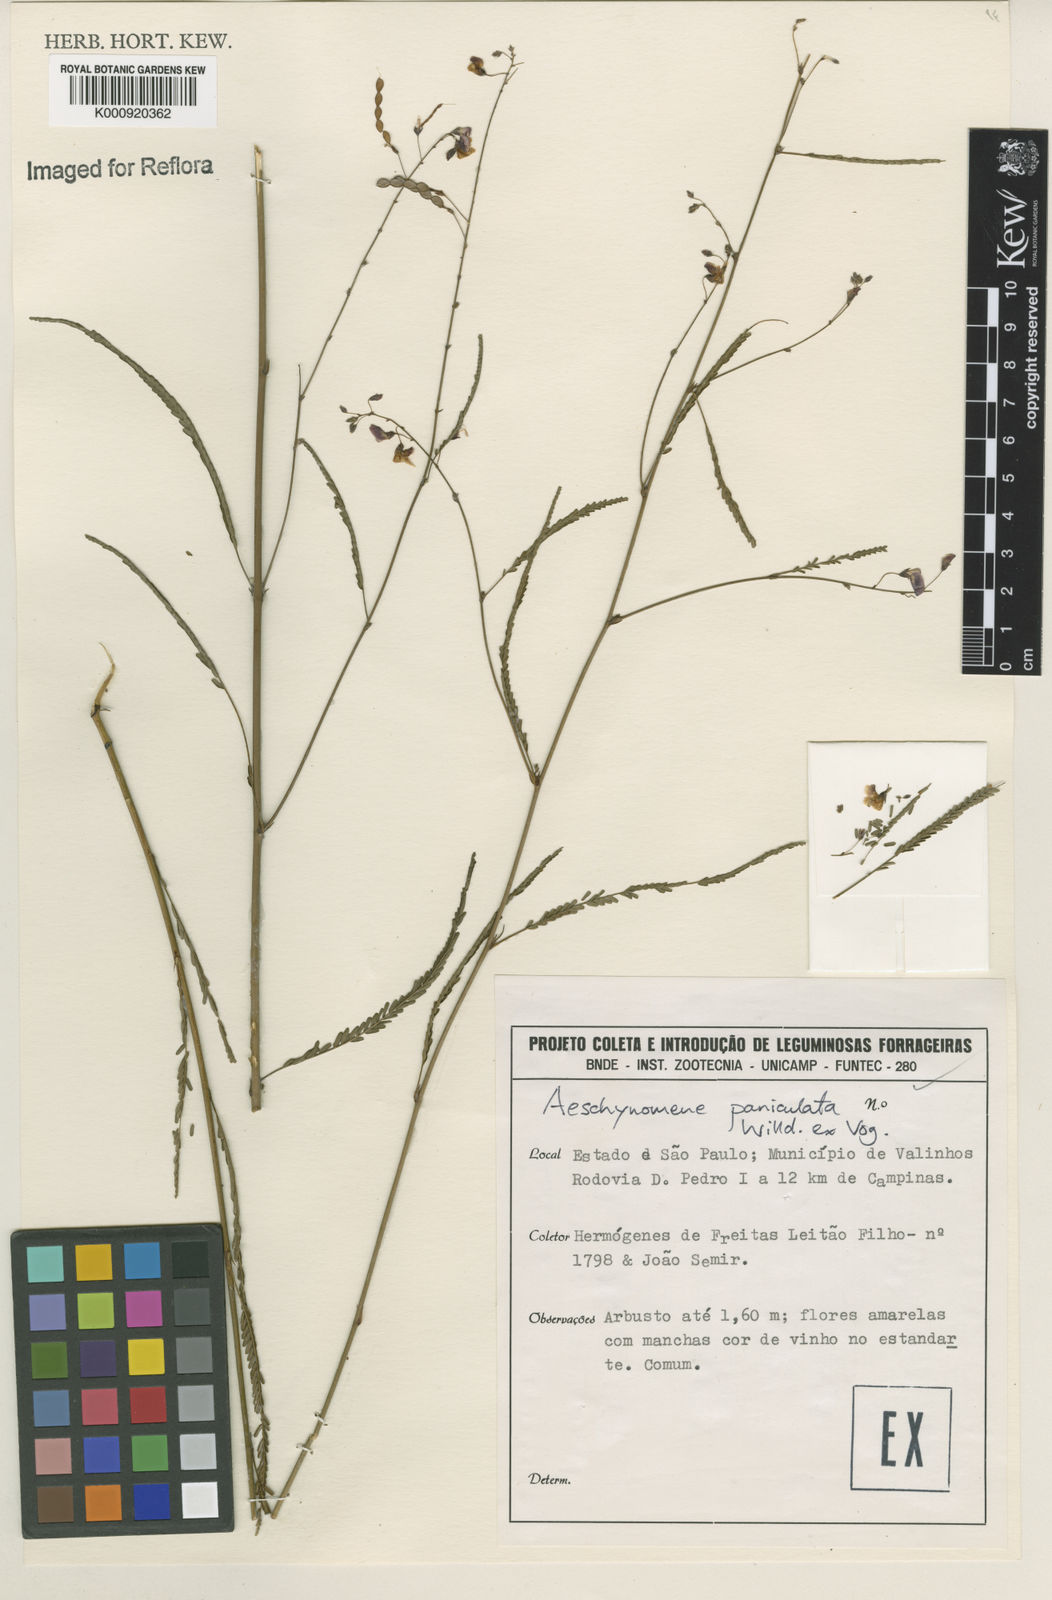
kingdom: Plantae
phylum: Tracheophyta
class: Magnoliopsida
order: Fabales
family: Fabaceae
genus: Ctenodon
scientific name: Ctenodon paniculatus
